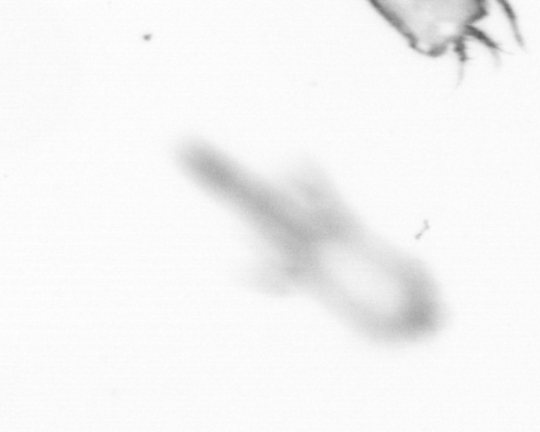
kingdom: Animalia
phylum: Arthropoda
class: Copepoda
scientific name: Copepoda
